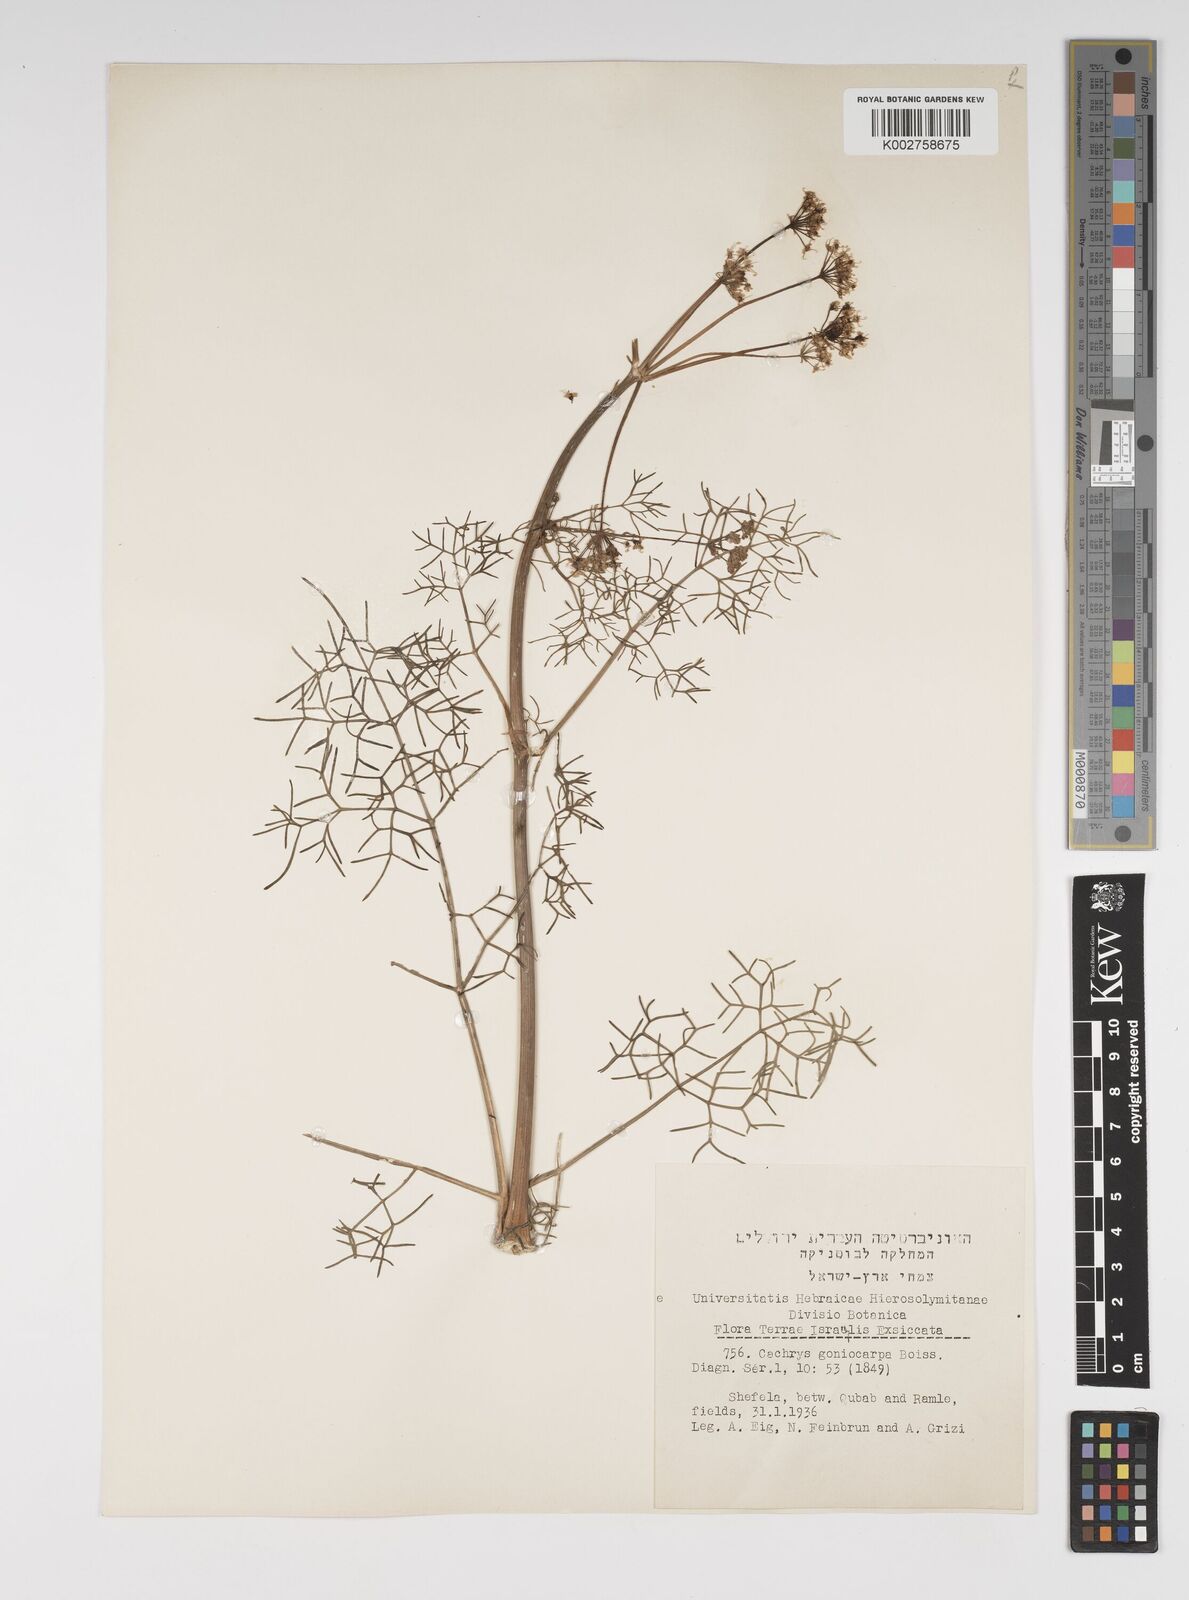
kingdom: Plantae
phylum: Tracheophyta
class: Magnoliopsida
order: Apiales
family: Apiaceae
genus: Prangos
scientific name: Prangos ferulacea
